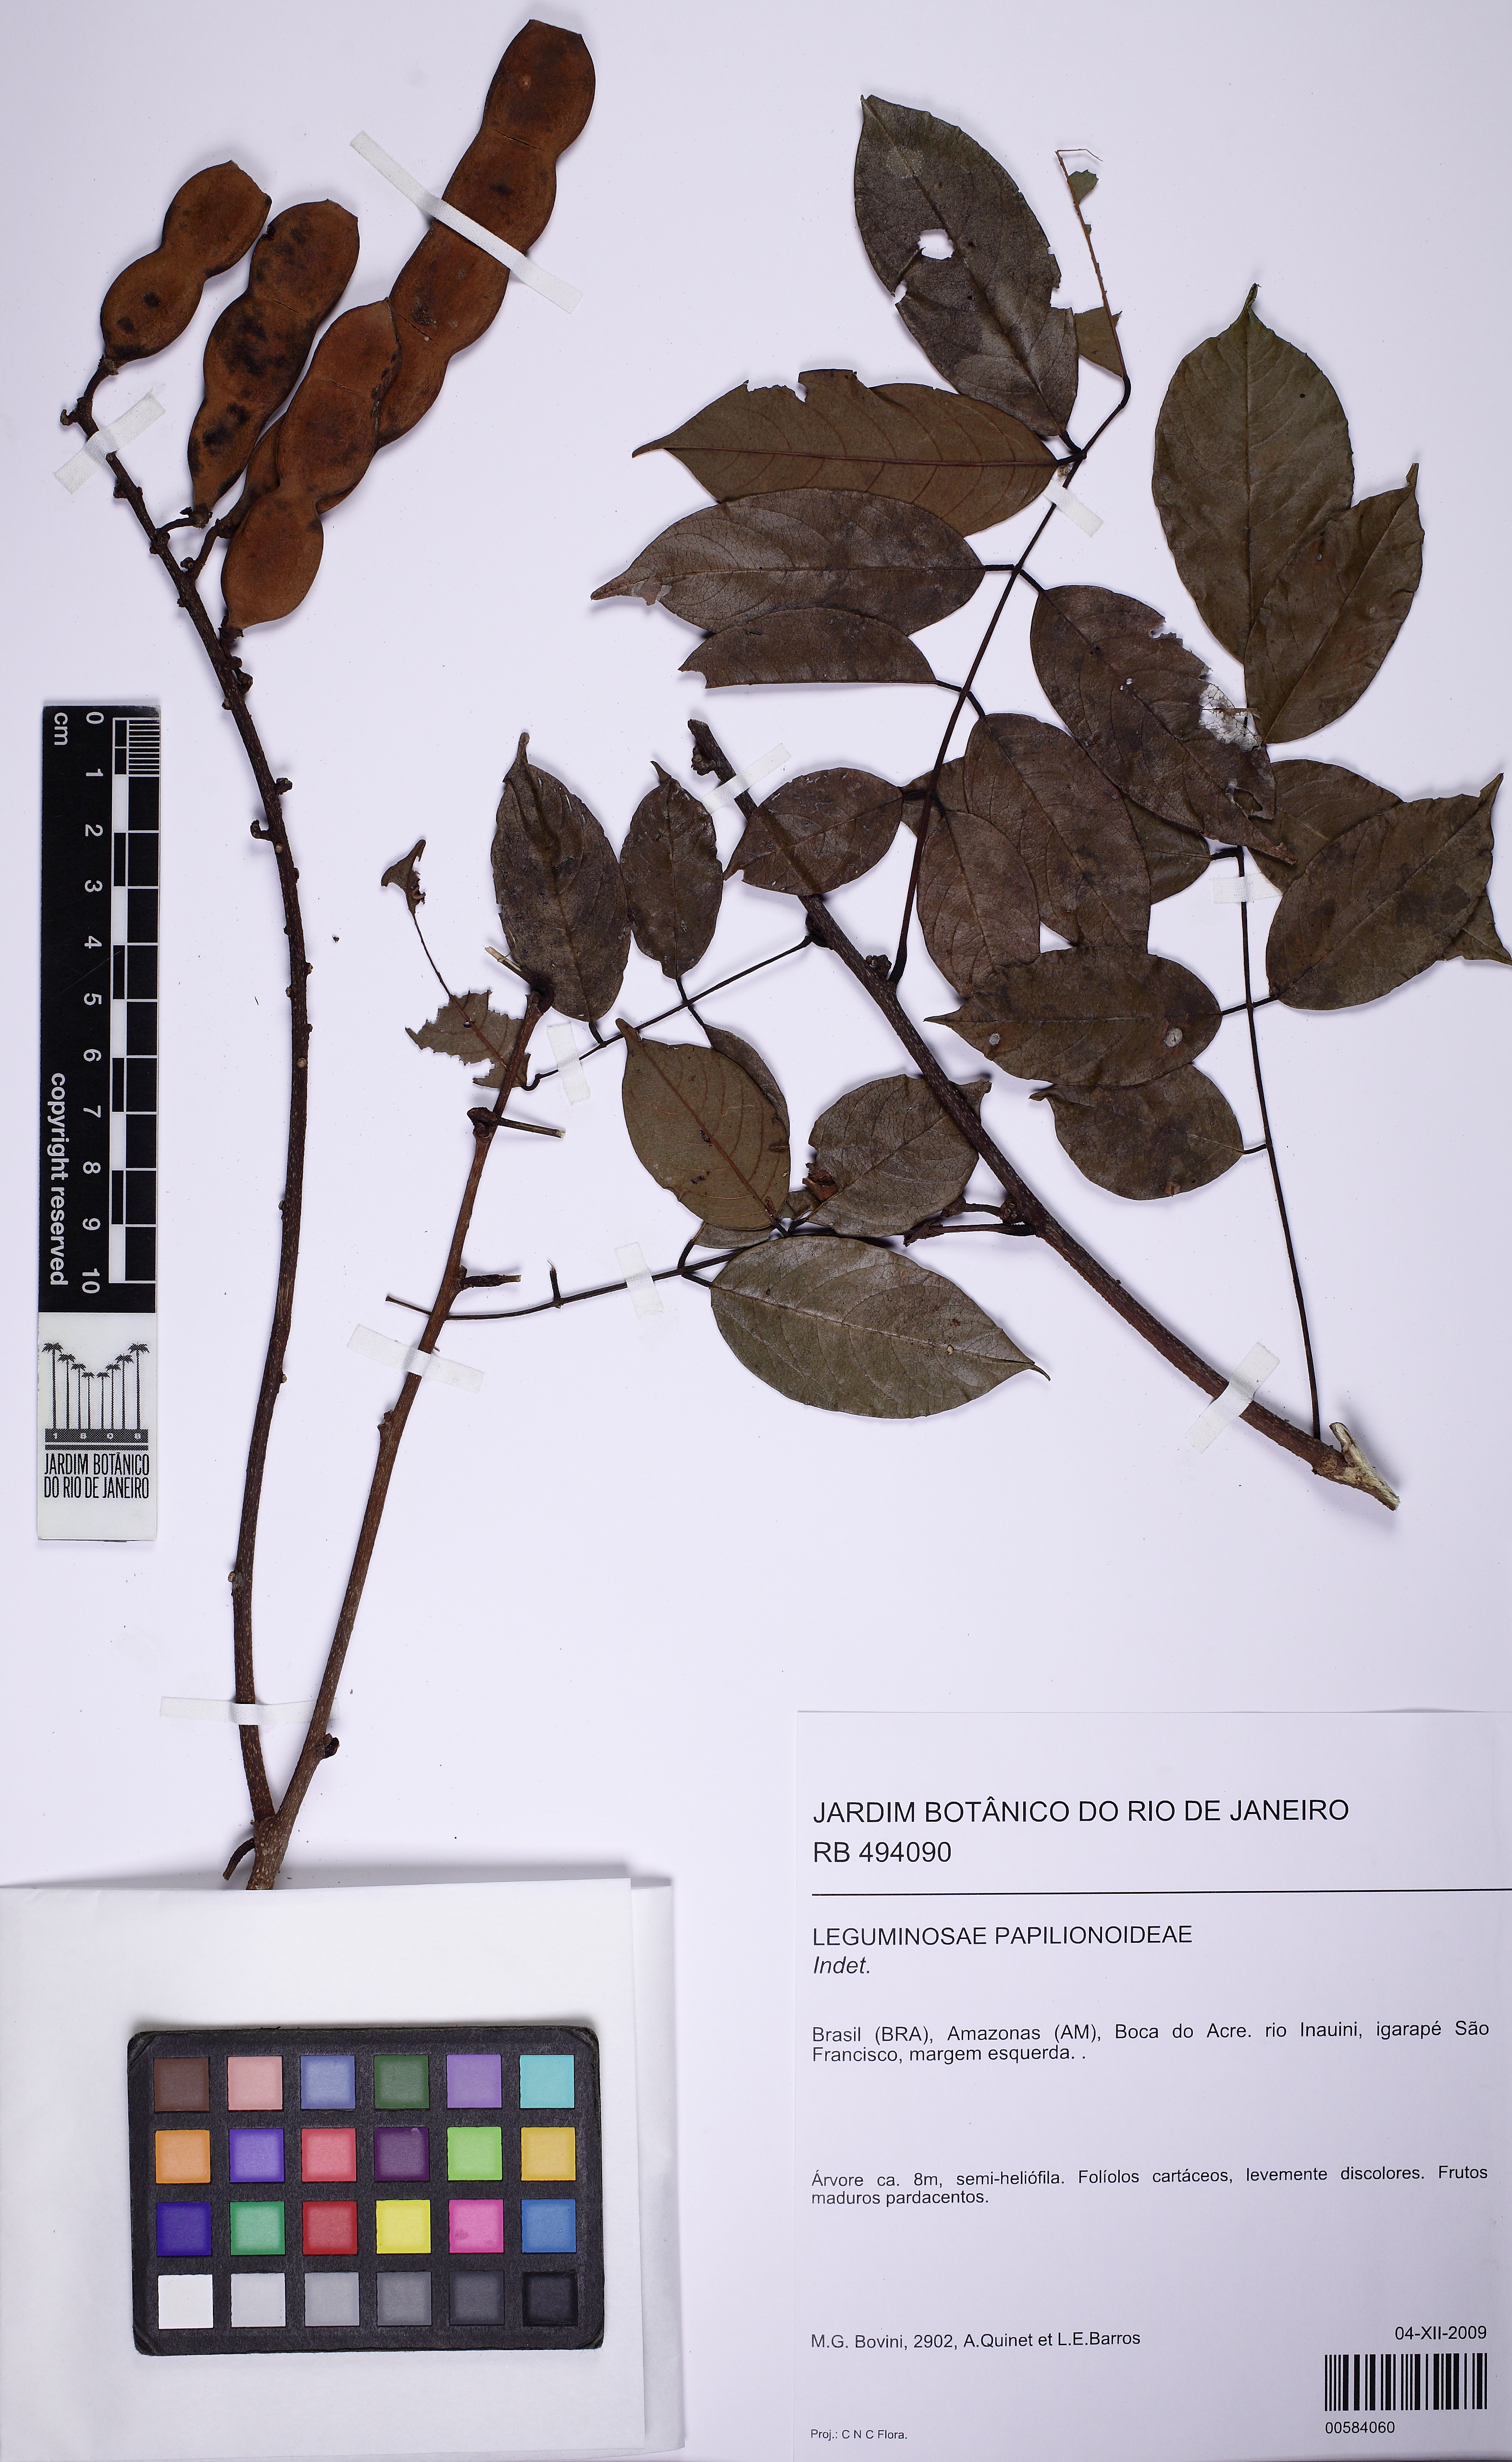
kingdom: Plantae
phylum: Tracheophyta
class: Magnoliopsida
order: Fabales
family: Fabaceae
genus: Lonchocarpus
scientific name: Lonchocarpus
